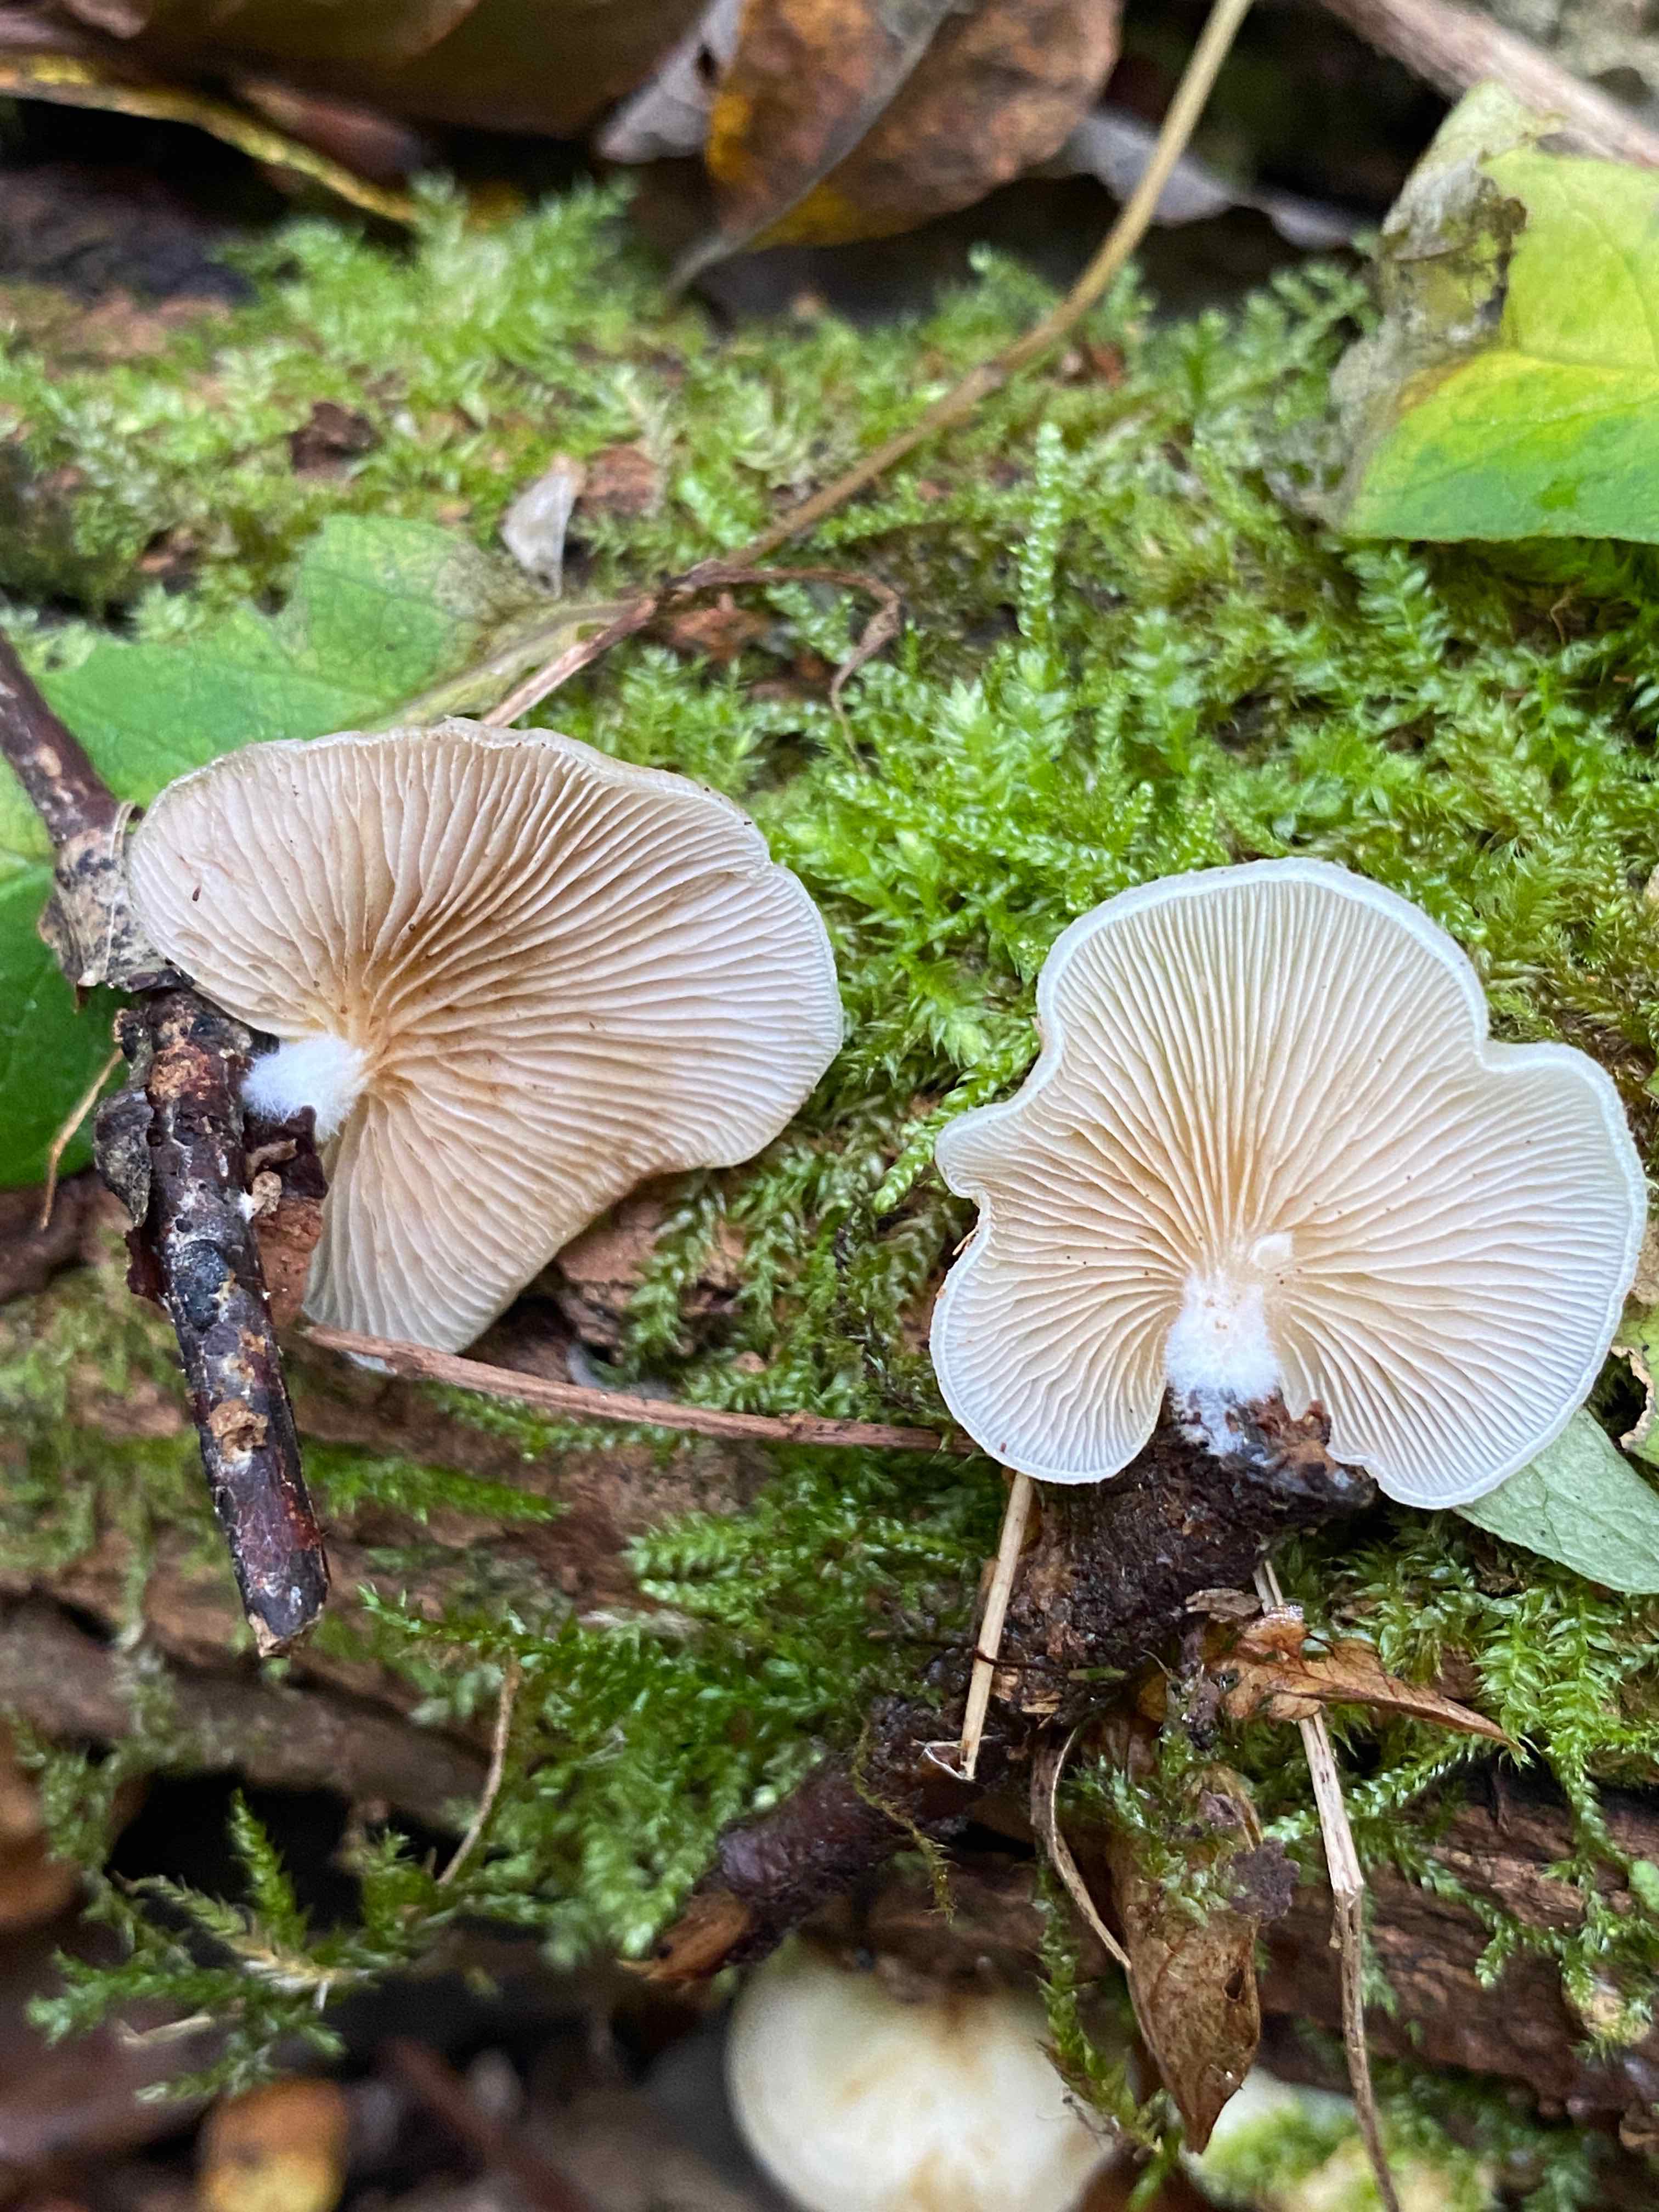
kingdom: Fungi
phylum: Basidiomycota
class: Agaricomycetes
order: Agaricales
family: Crepidotaceae
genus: Crepidotus
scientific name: Crepidotus mollis
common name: blød muslingesvamp
